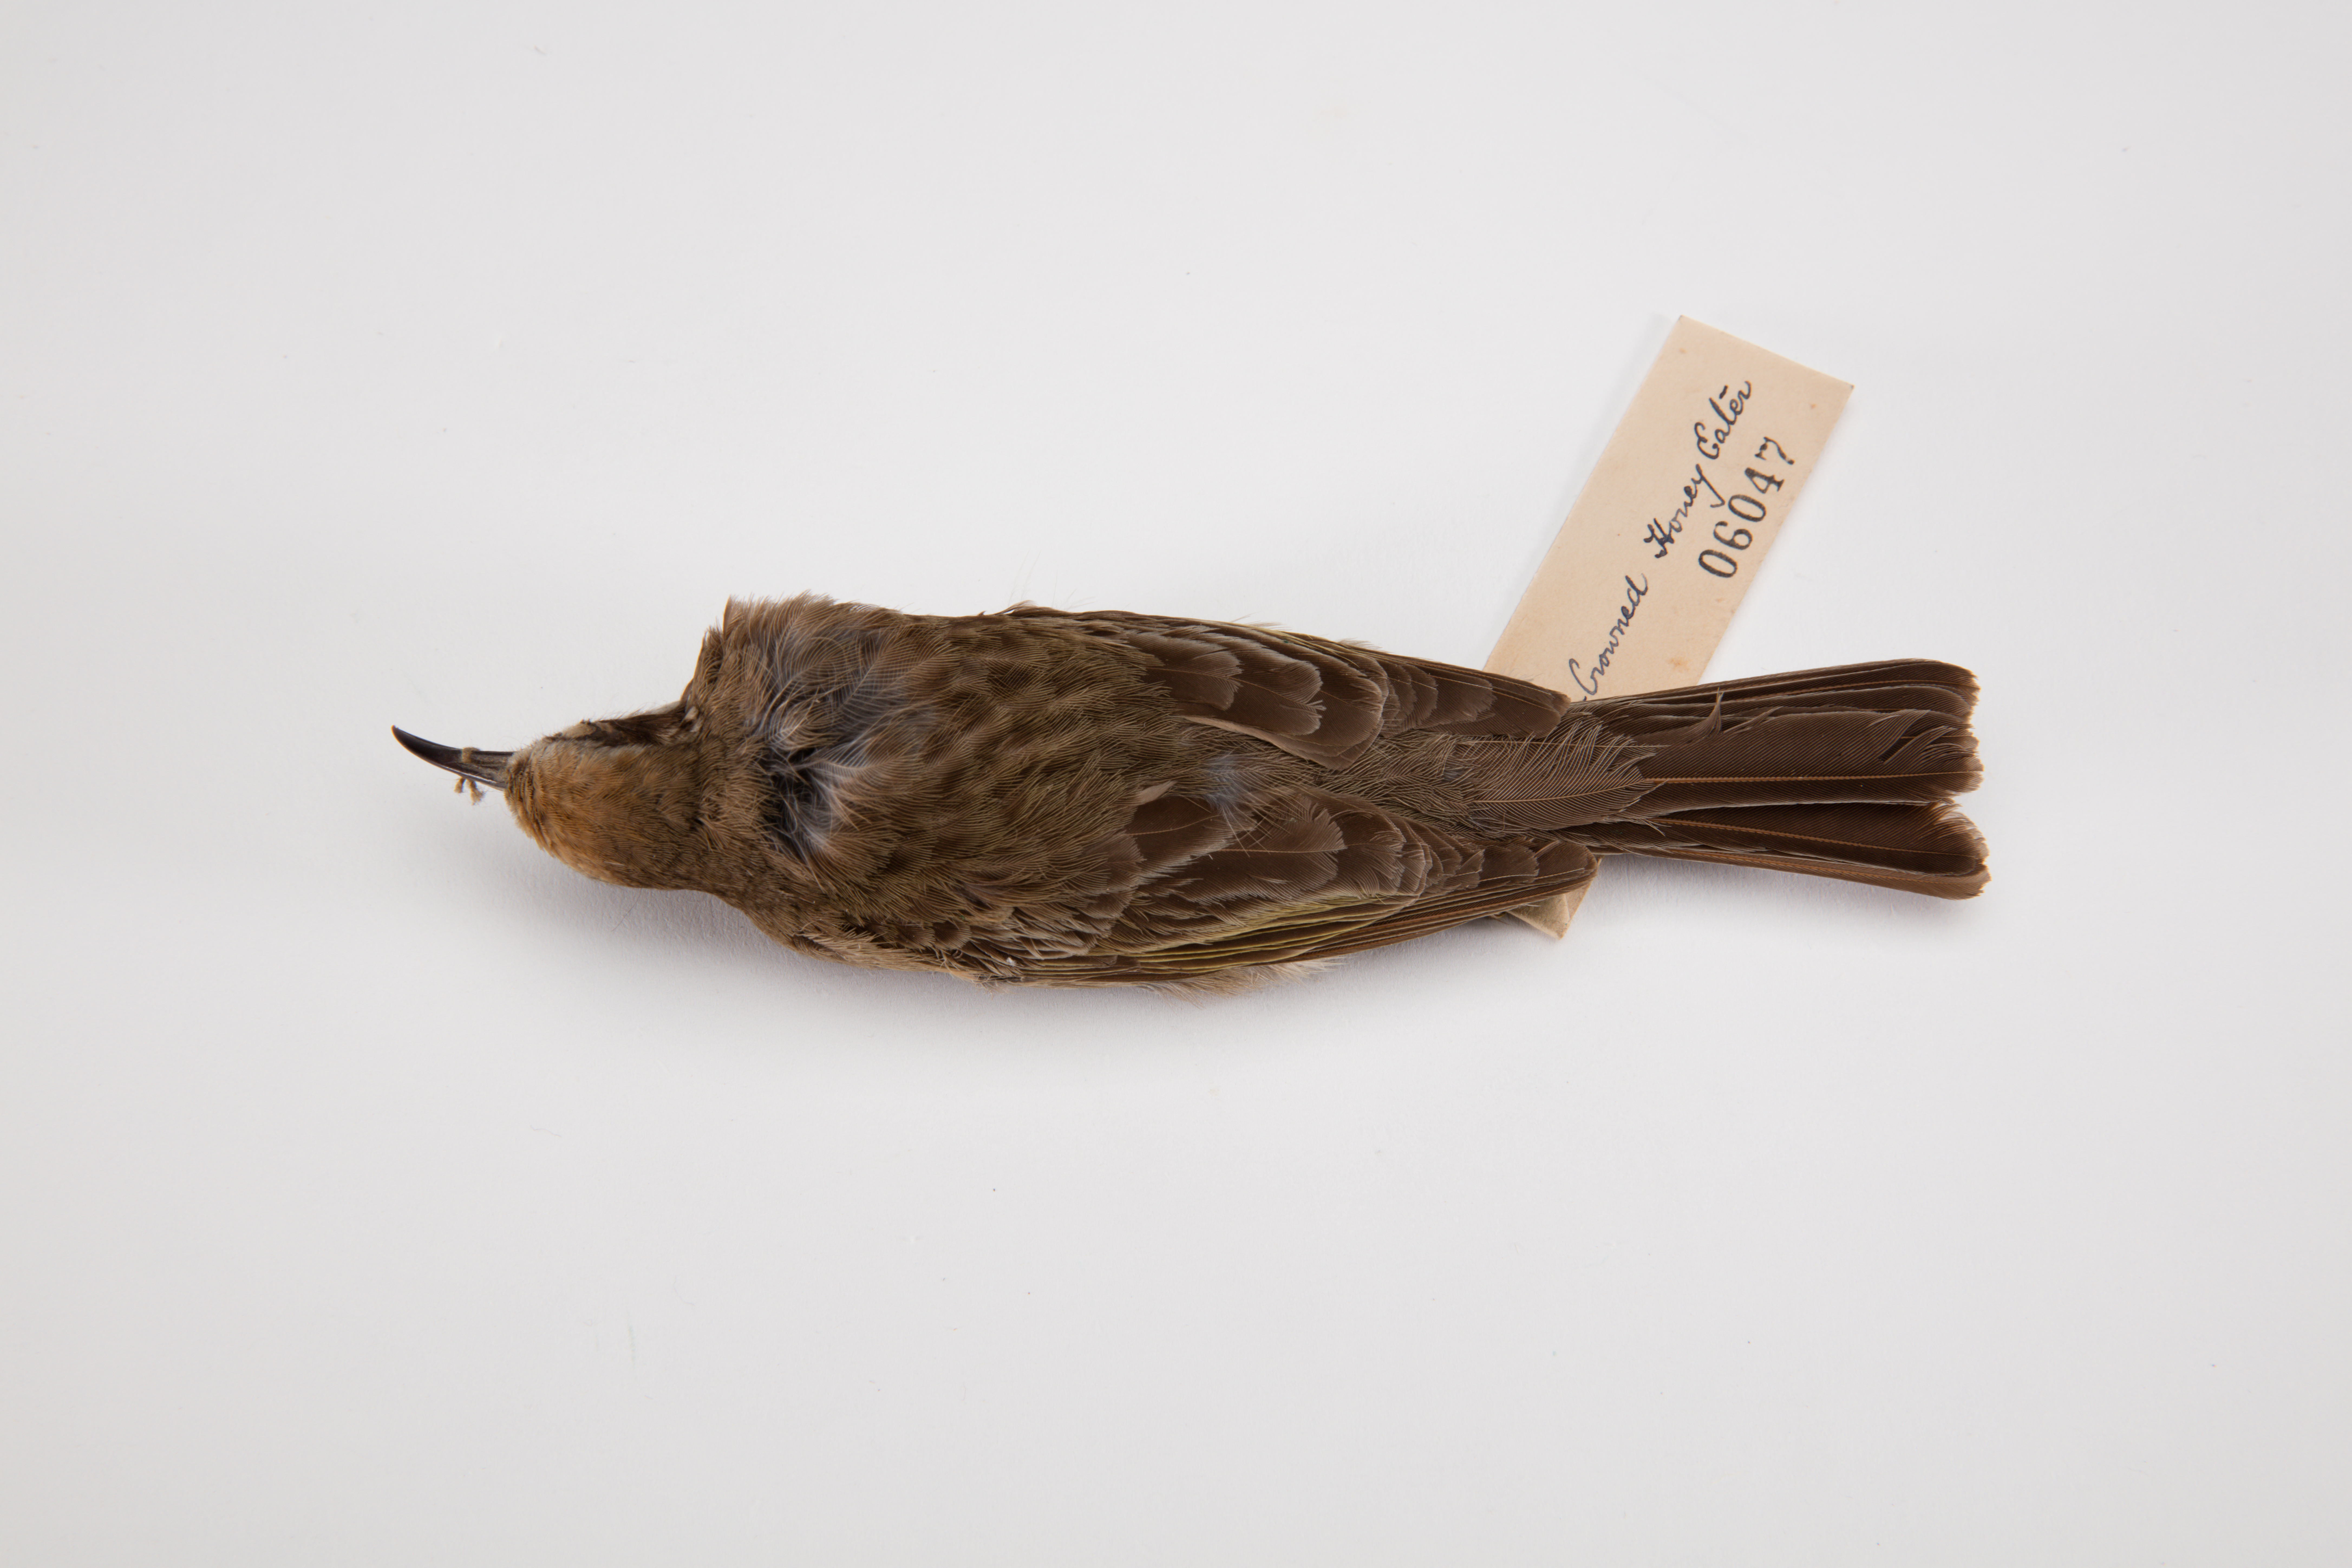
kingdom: Animalia
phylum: Chordata
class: Aves
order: Passeriformes
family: Meliphagidae
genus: Gliciphila
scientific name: Gliciphila
